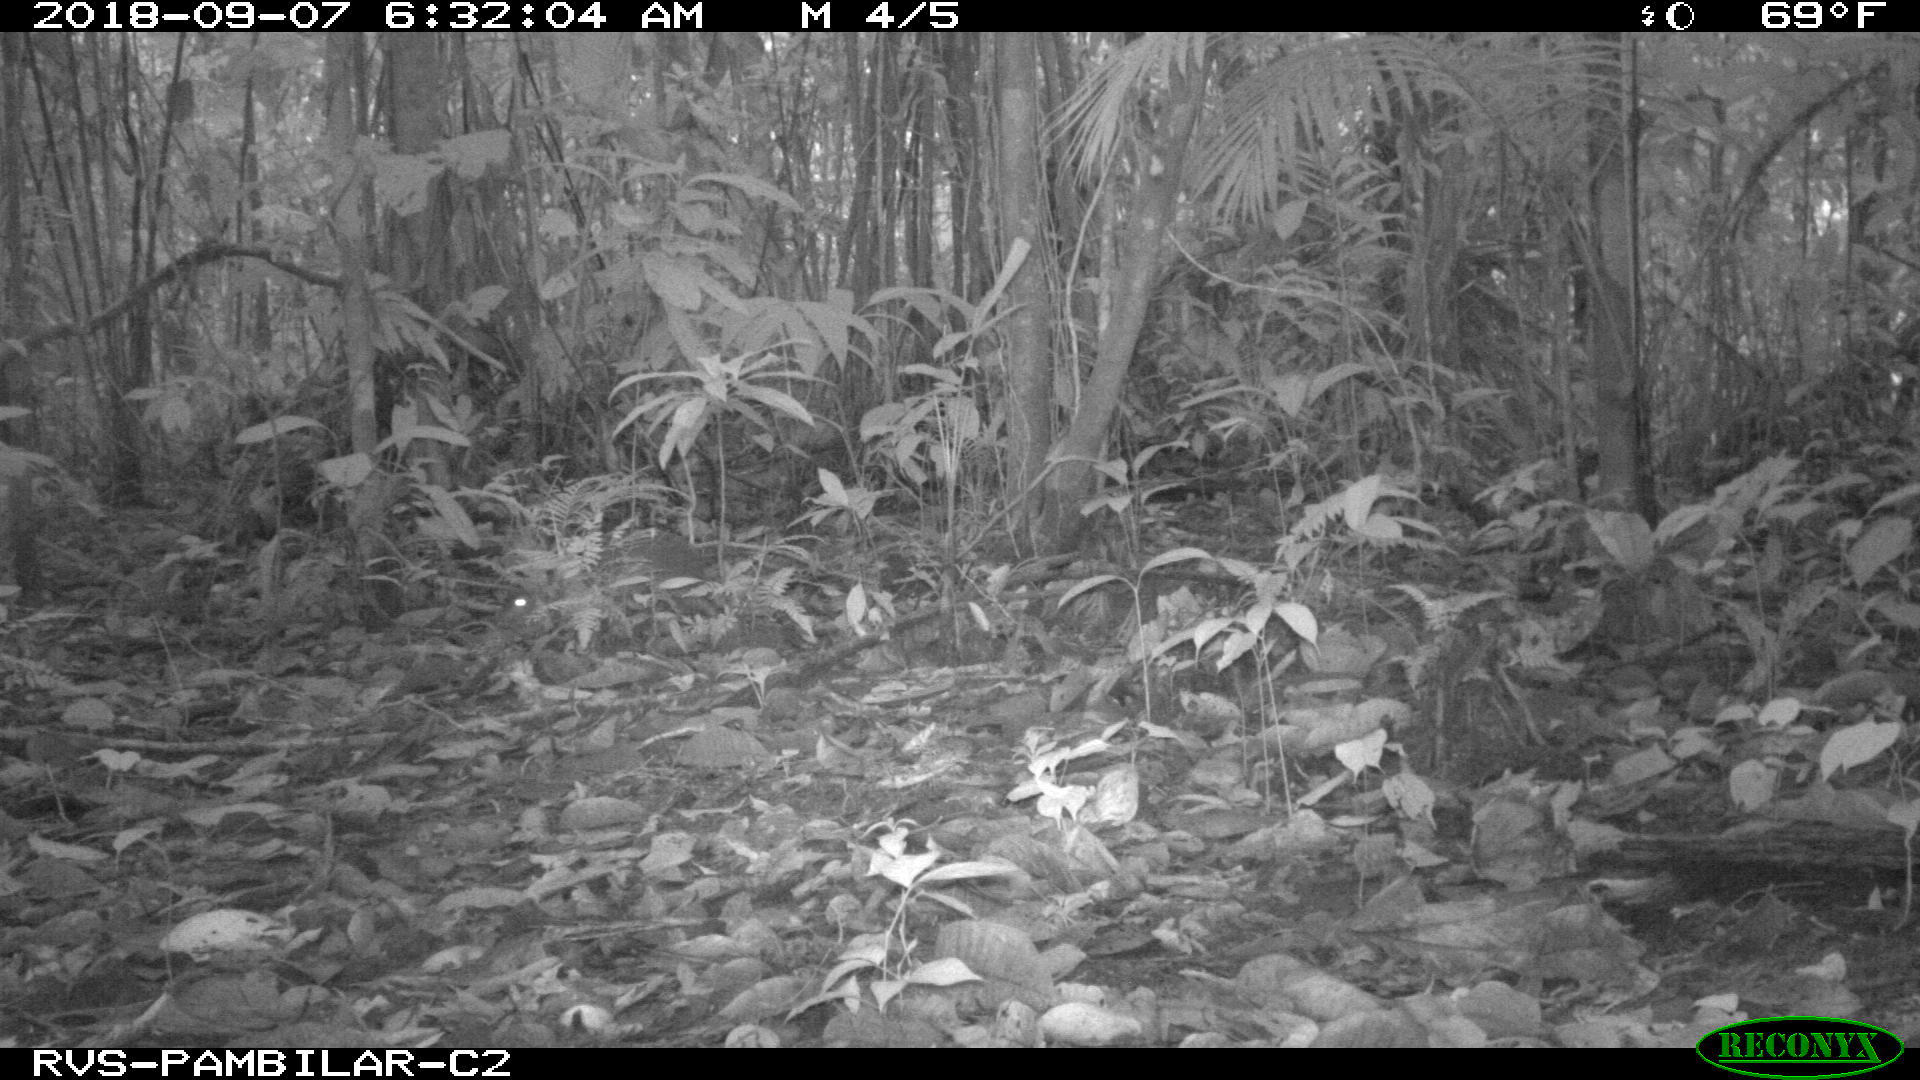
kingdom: Animalia
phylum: Chordata
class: Mammalia
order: Rodentia
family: Dasyproctidae
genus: Dasyprocta
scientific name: Dasyprocta punctata
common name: Central american agouti
